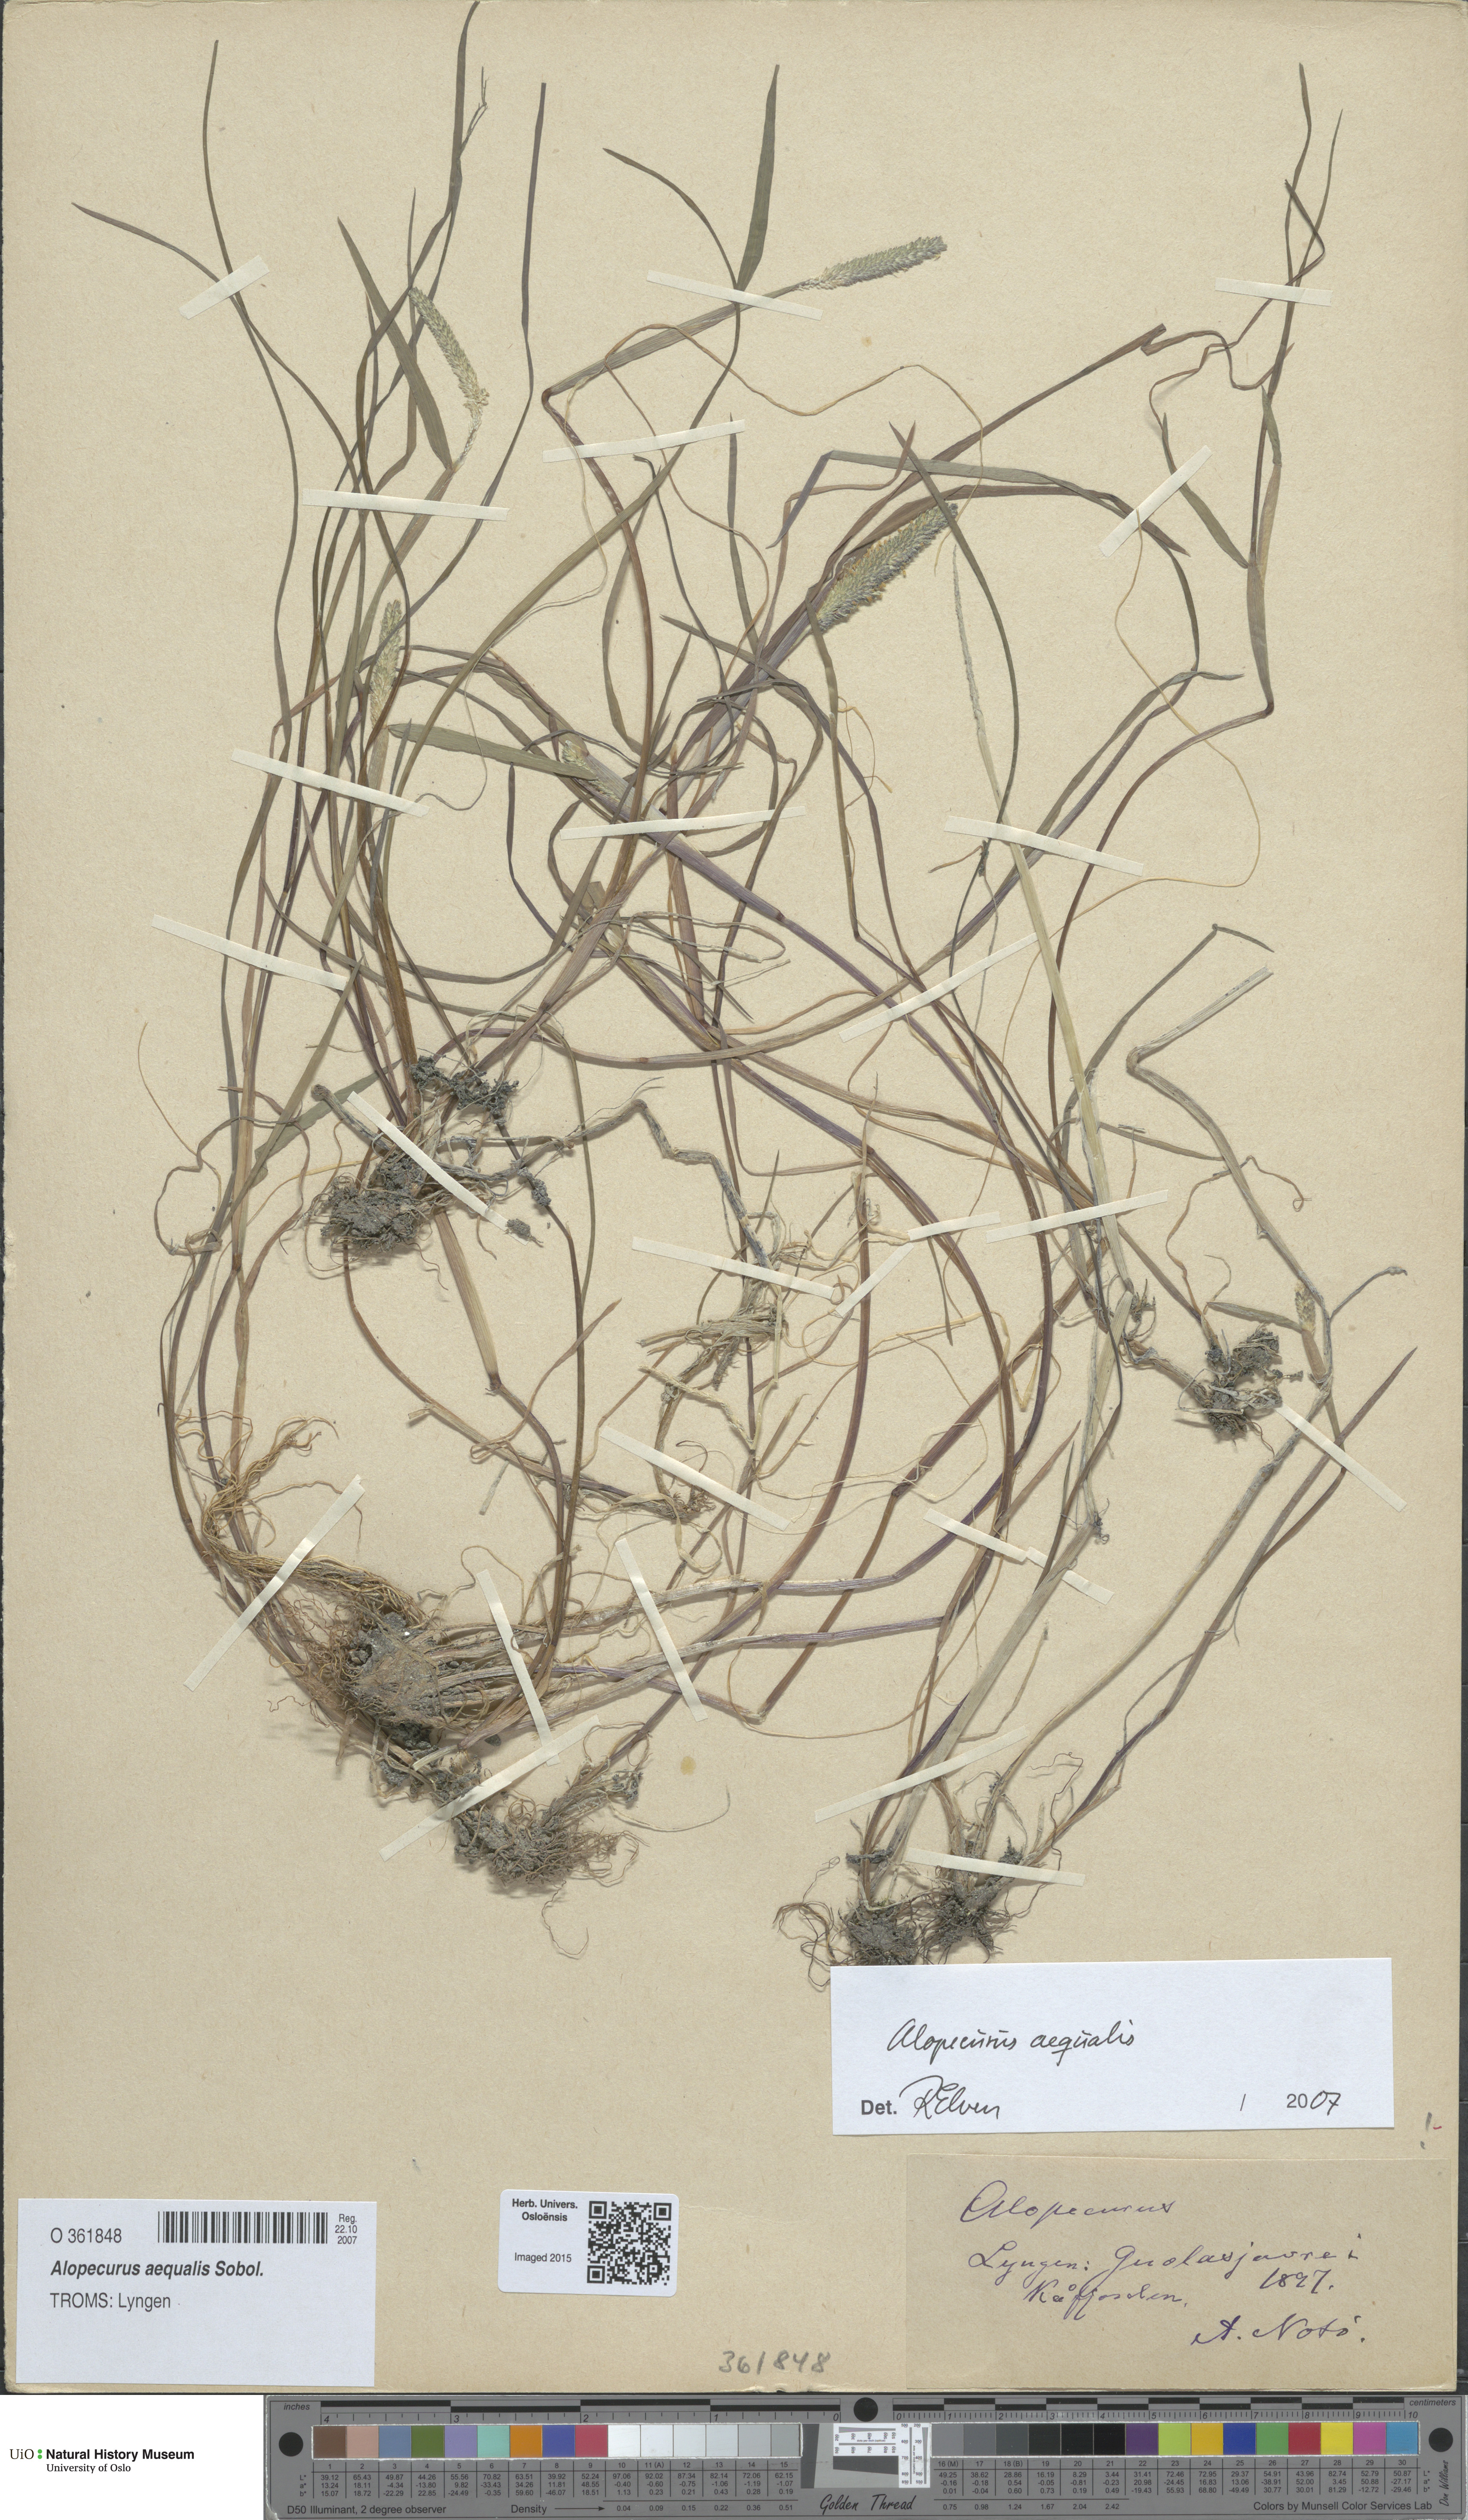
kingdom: Plantae
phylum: Tracheophyta
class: Liliopsida
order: Poales
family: Poaceae
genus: Alopecurus
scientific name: Alopecurus aequalis
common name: Orange foxtail
